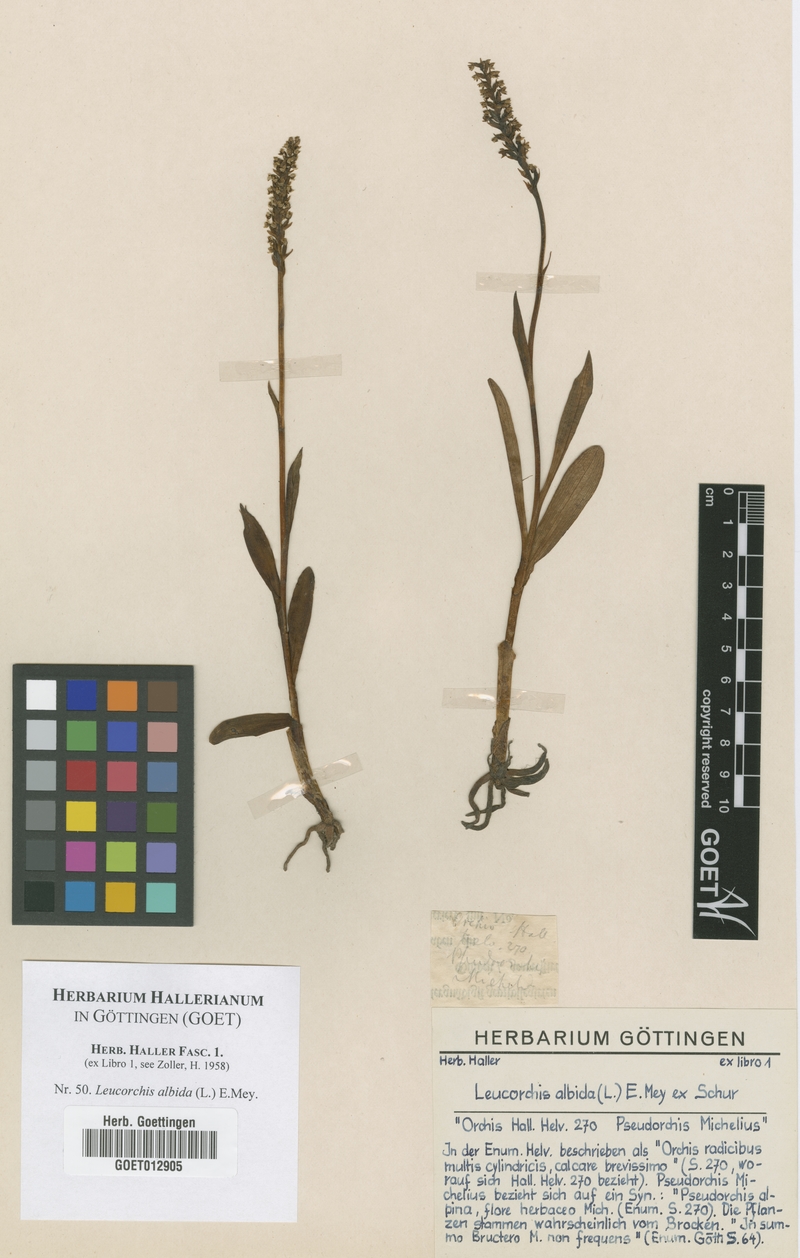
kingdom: Plantae
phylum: Tracheophyta
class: Liliopsida
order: Asparagales
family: Orchidaceae
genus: Pseudorchis
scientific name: Pseudorchis albida
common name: Small-white orchid
